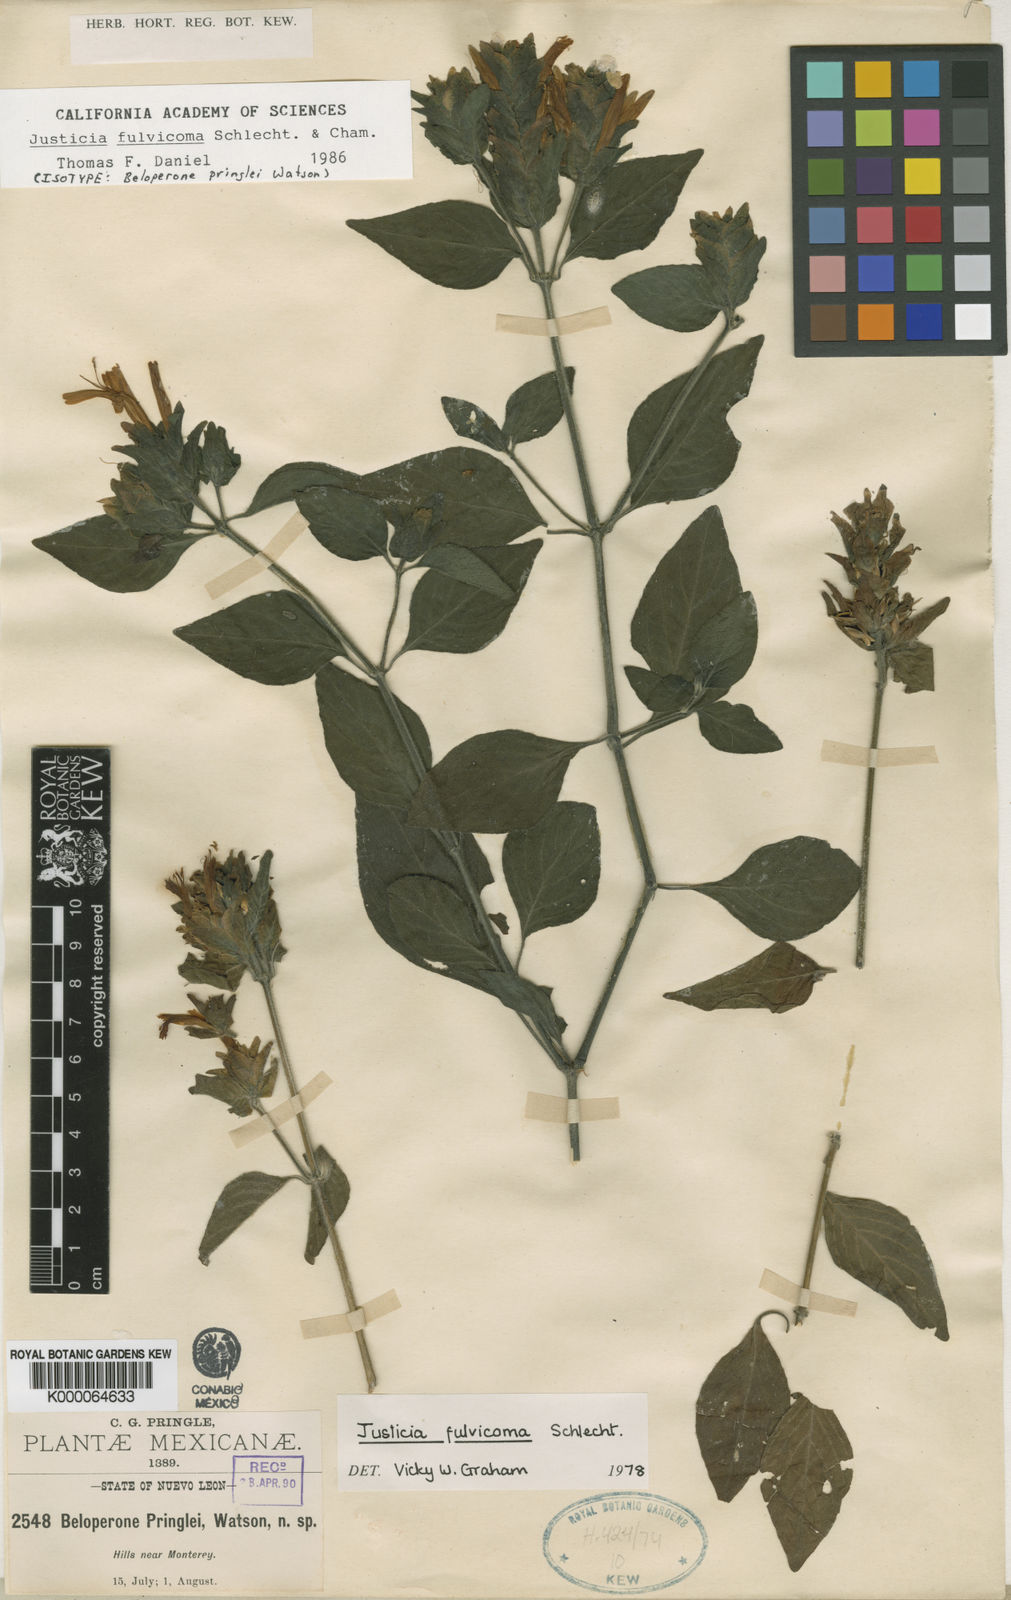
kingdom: Plantae
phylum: Tracheophyta
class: Magnoliopsida
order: Lamiales
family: Acanthaceae
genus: Justicia
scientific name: Justicia fulvicoma
